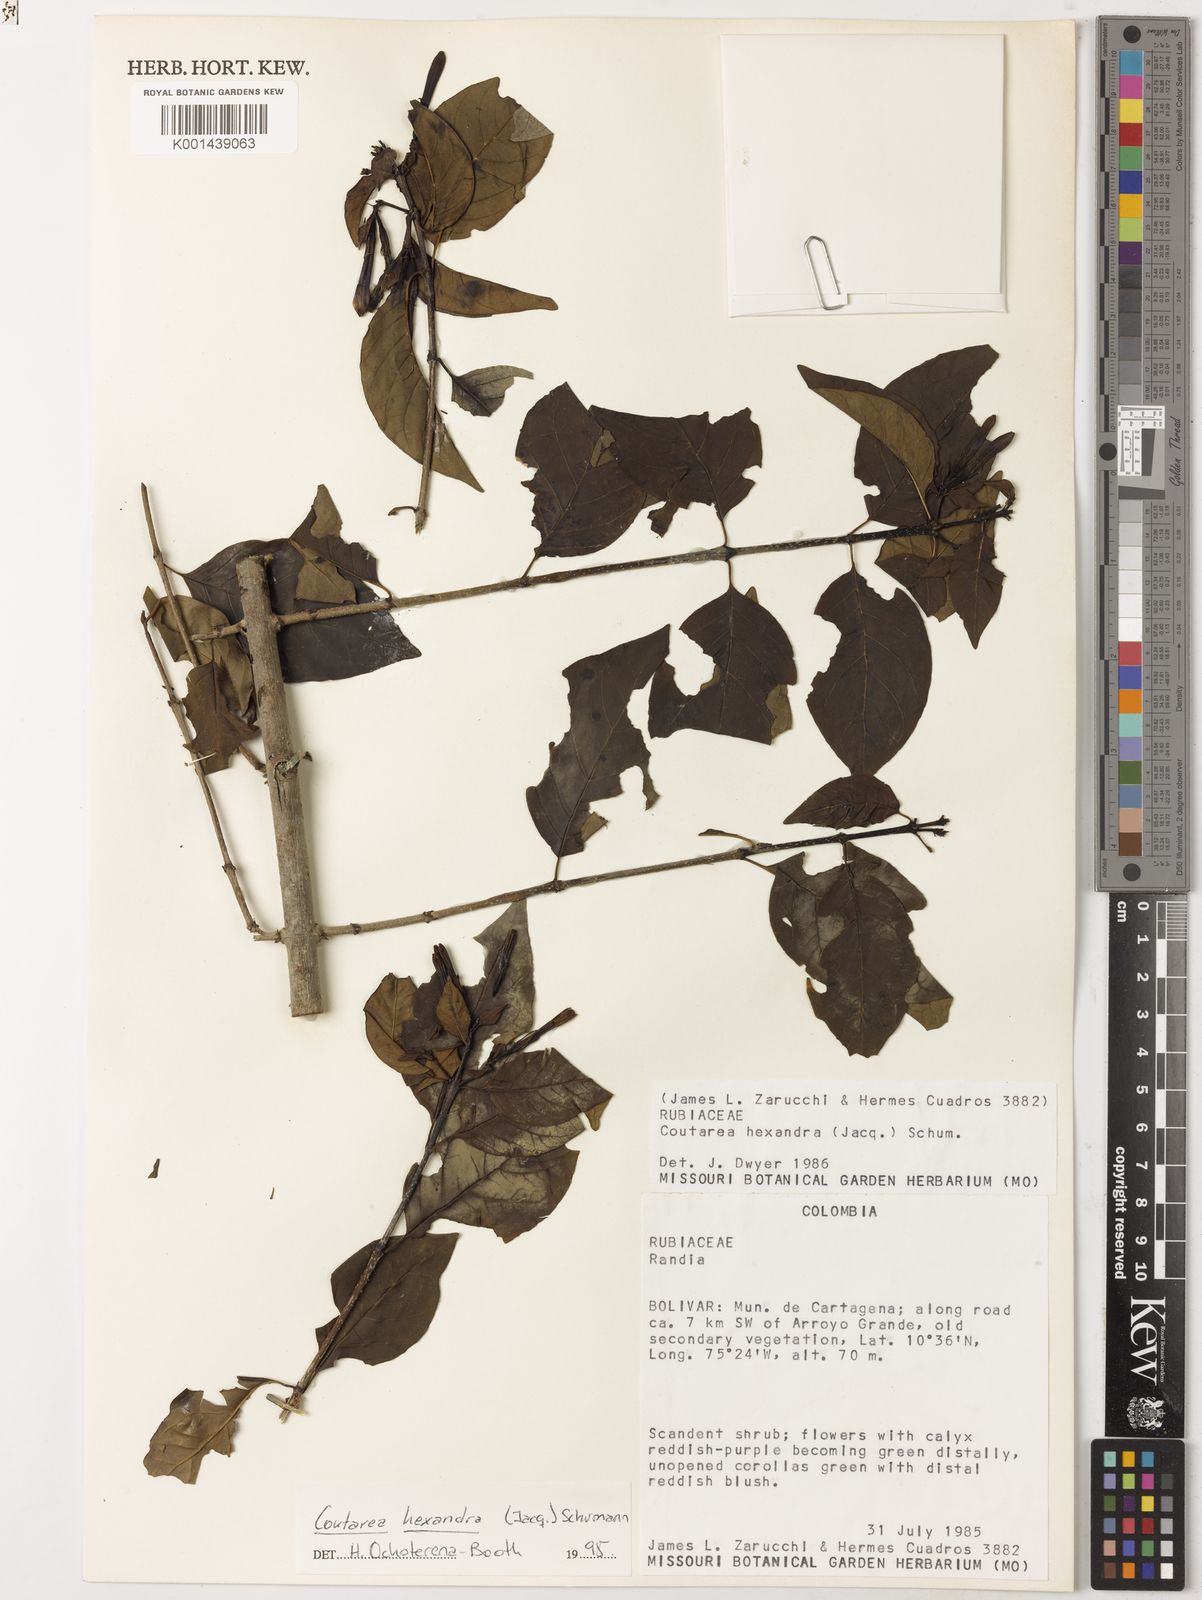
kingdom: Plantae
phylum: Tracheophyta
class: Magnoliopsida
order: Gentianales
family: Rubiaceae
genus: Coutarea
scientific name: Coutarea hexandra
